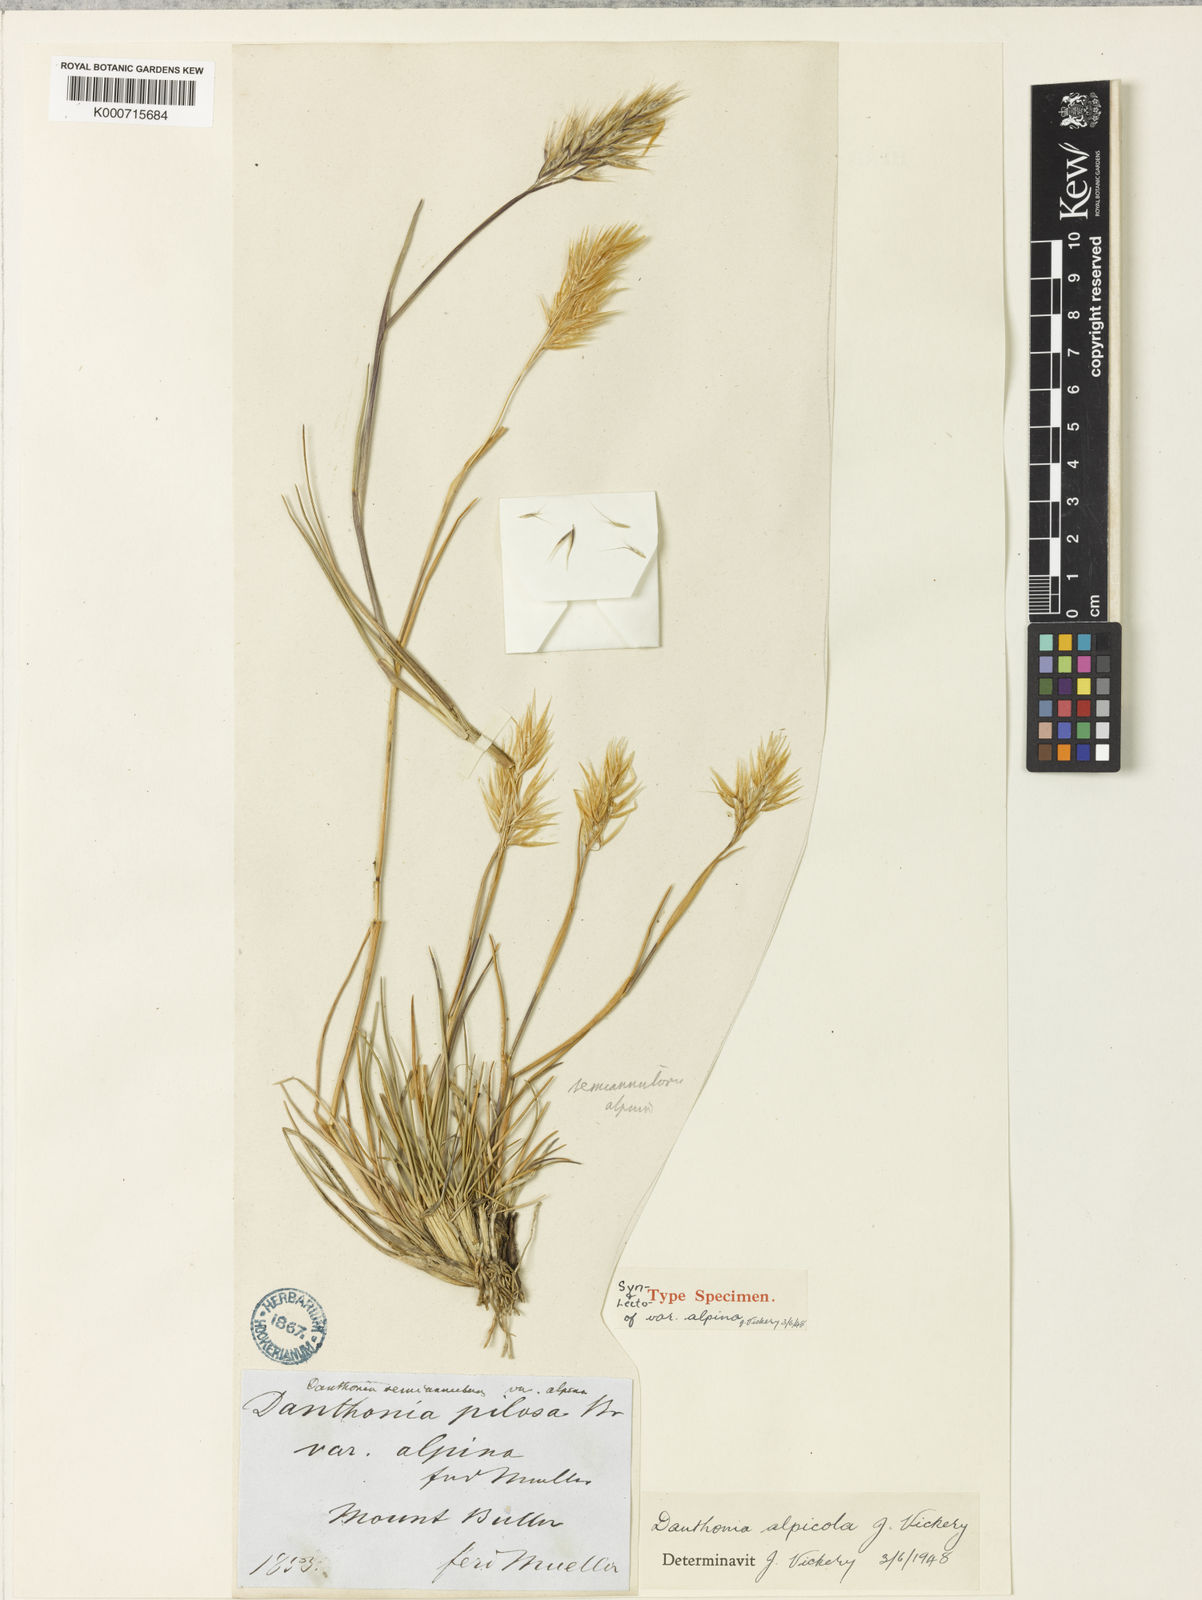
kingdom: Plantae
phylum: Tracheophyta
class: Liliopsida
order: Poales
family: Poaceae
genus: Rytidosperma
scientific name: Rytidosperma alpicola
